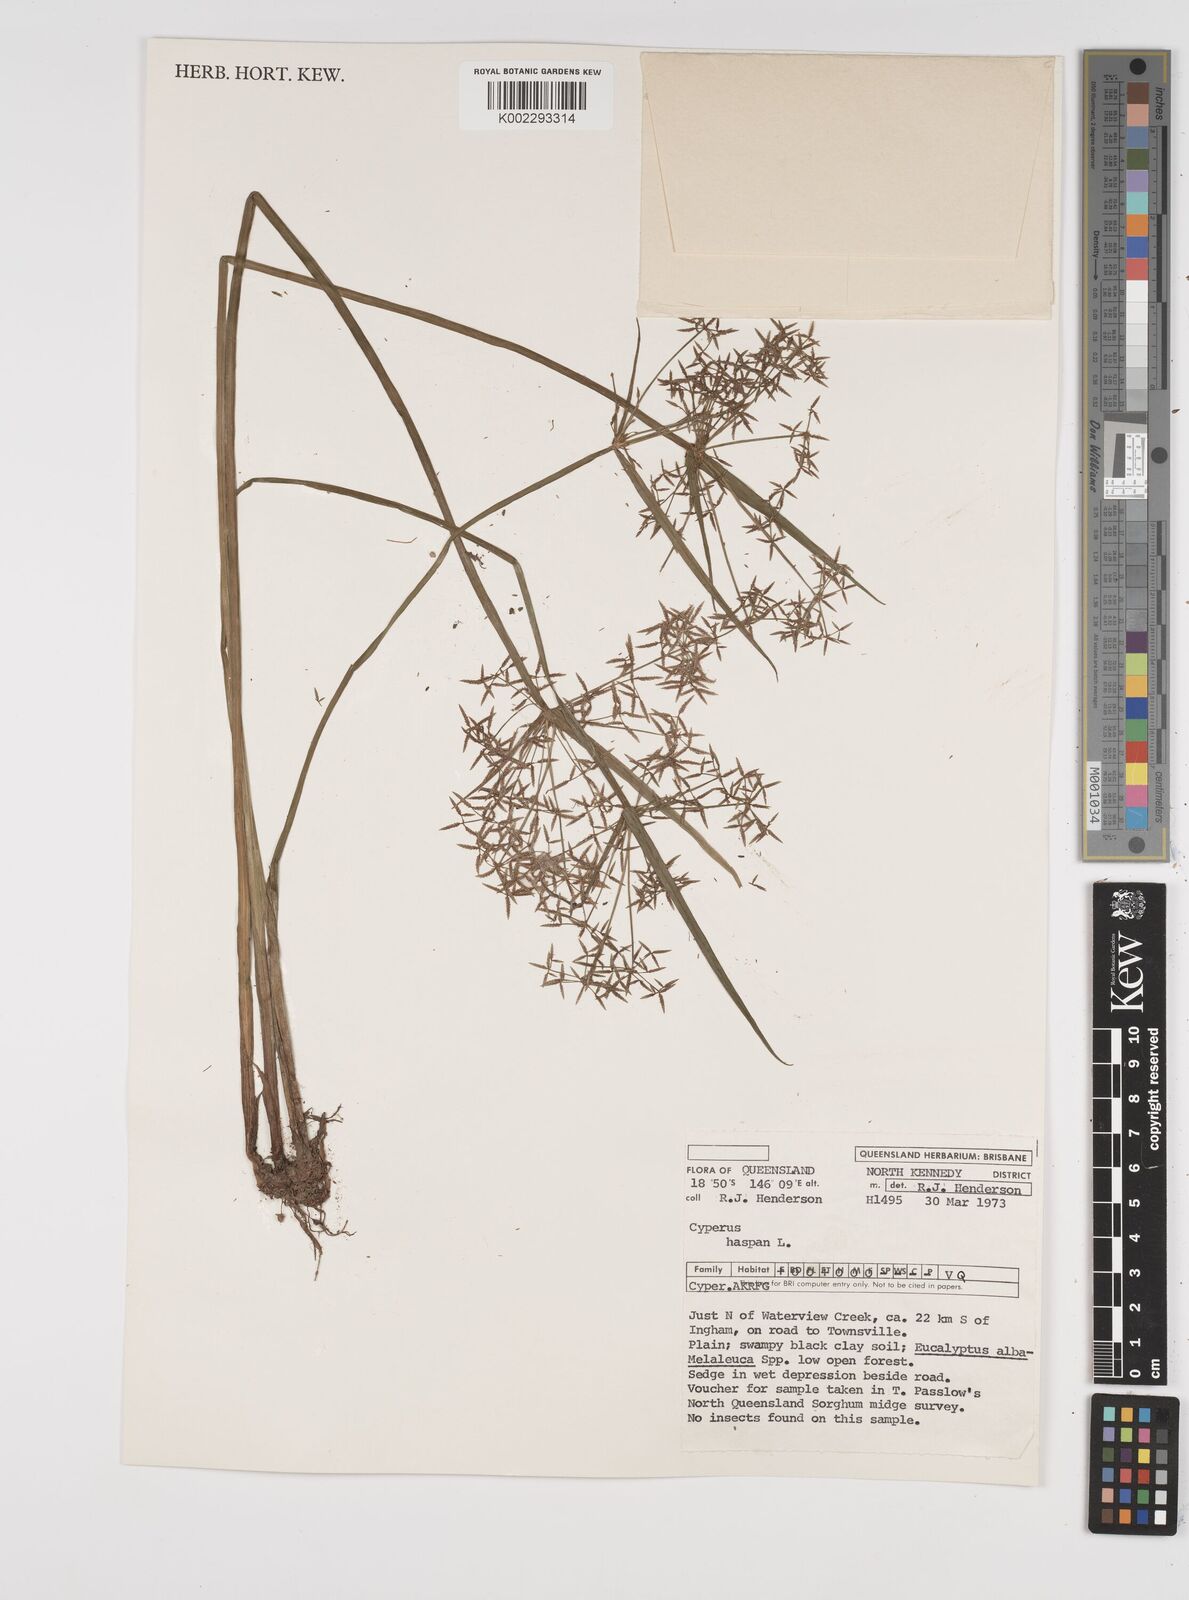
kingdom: Plantae
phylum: Tracheophyta
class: Liliopsida
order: Poales
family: Cyperaceae
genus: Cyperus
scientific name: Cyperus haspan
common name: Haspan flatsedge
